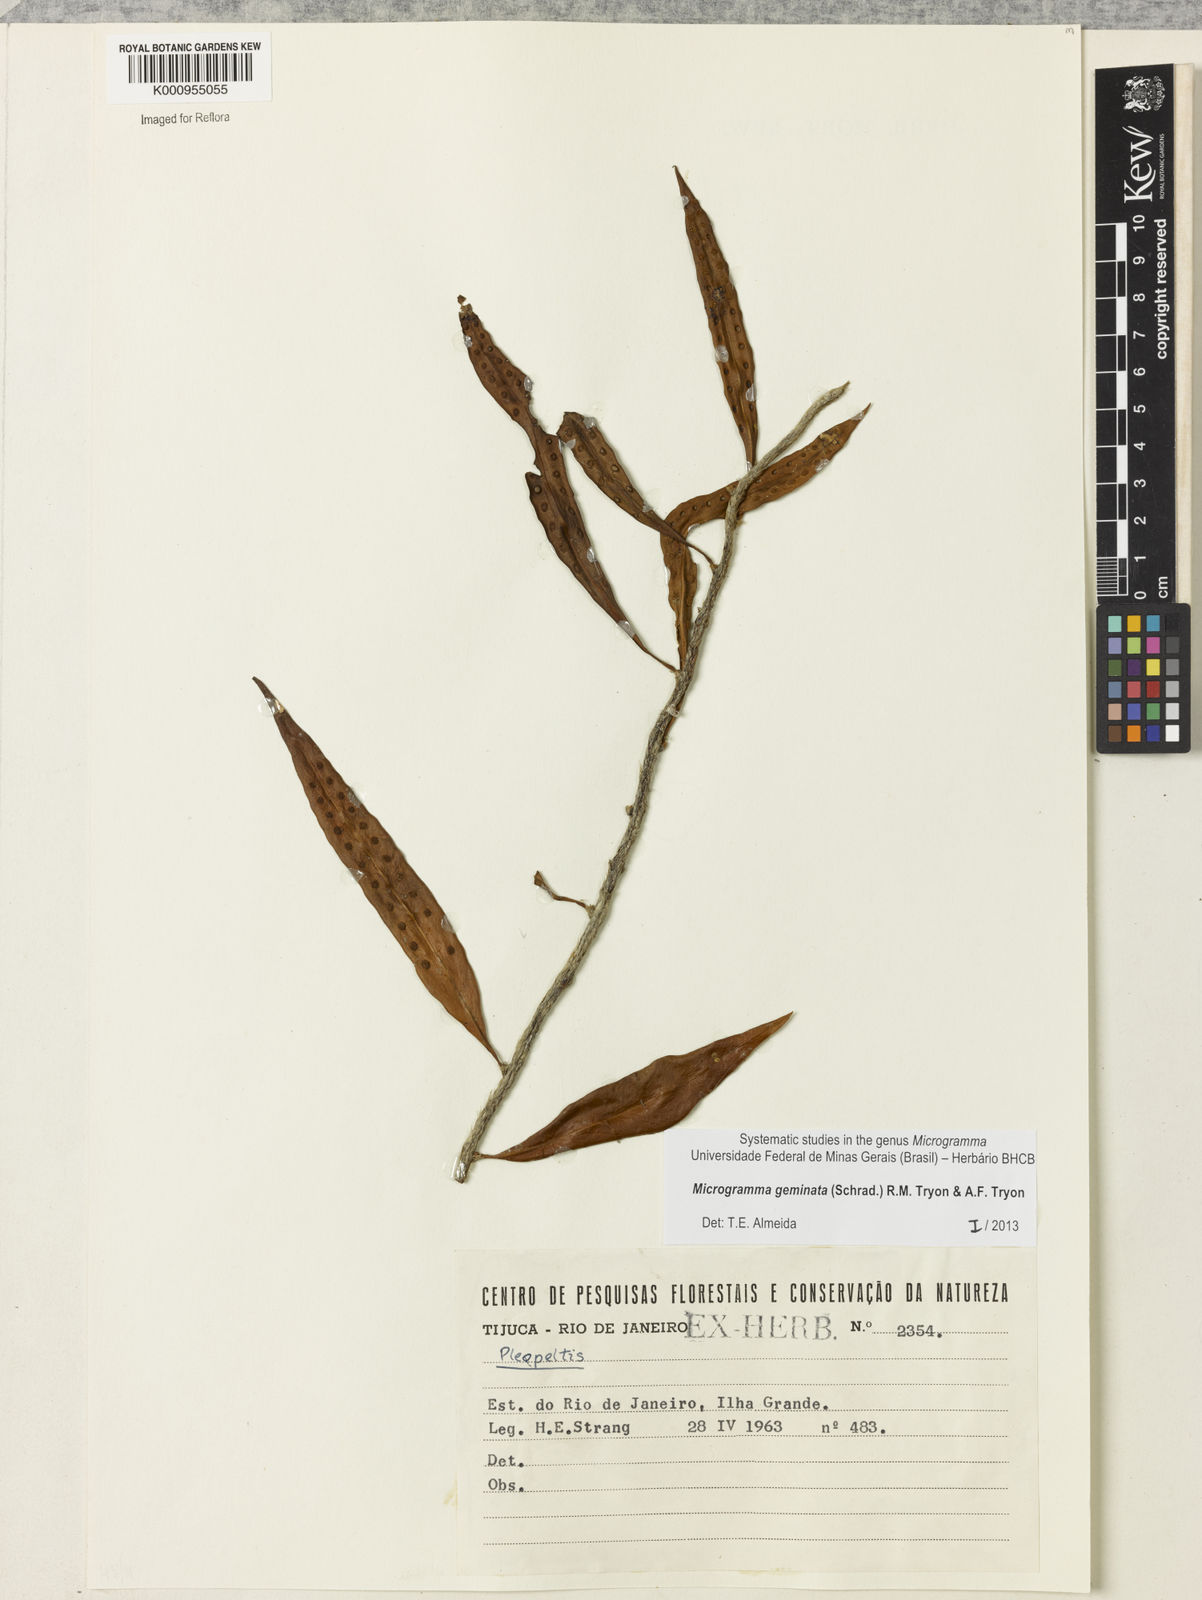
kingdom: Plantae
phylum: Tracheophyta
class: Polypodiopsida
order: Polypodiales
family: Polypodiaceae
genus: Microgramma
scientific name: Microgramma geminata
